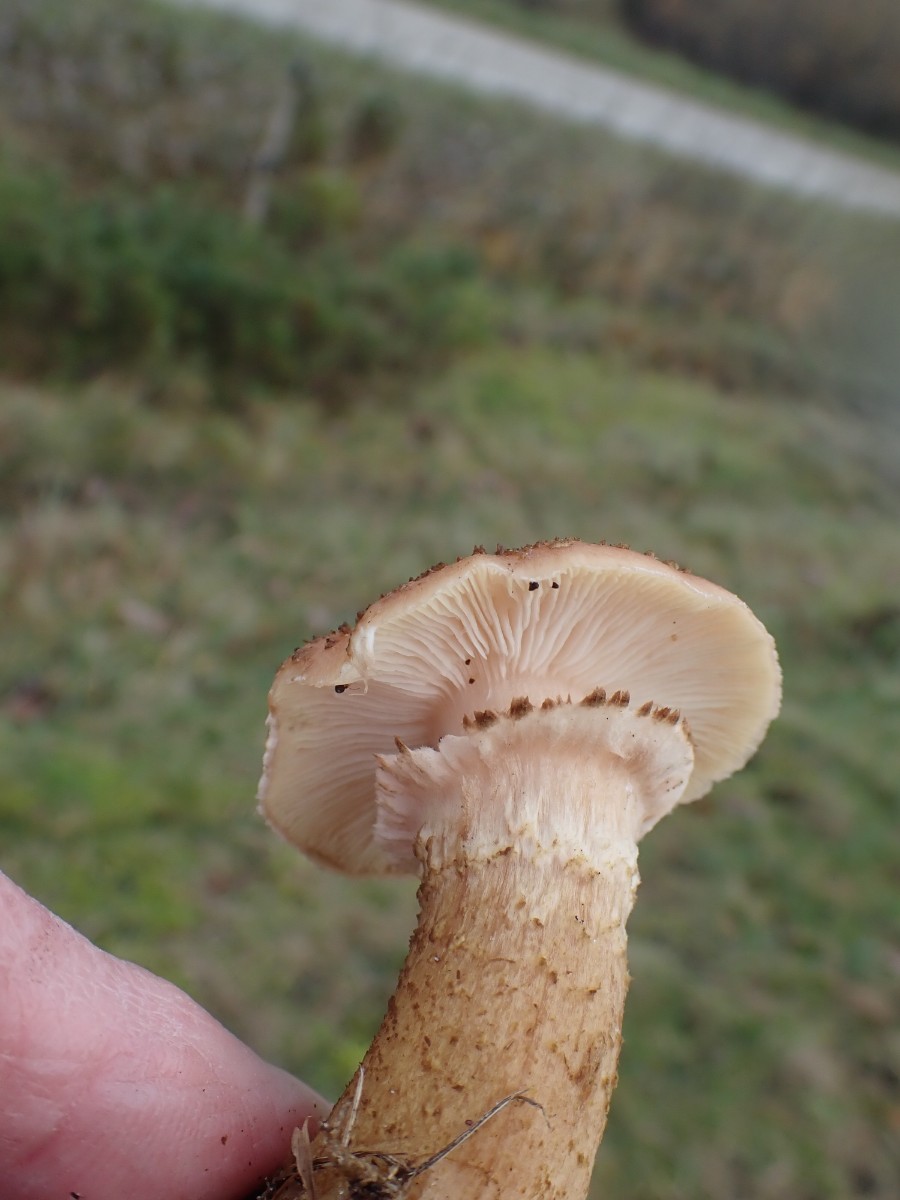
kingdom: Fungi
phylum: Basidiomycota
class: Agaricomycetes
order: Agaricales
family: Physalacriaceae
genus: Armillaria
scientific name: Armillaria ostoyae
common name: mørk honningsvamp
